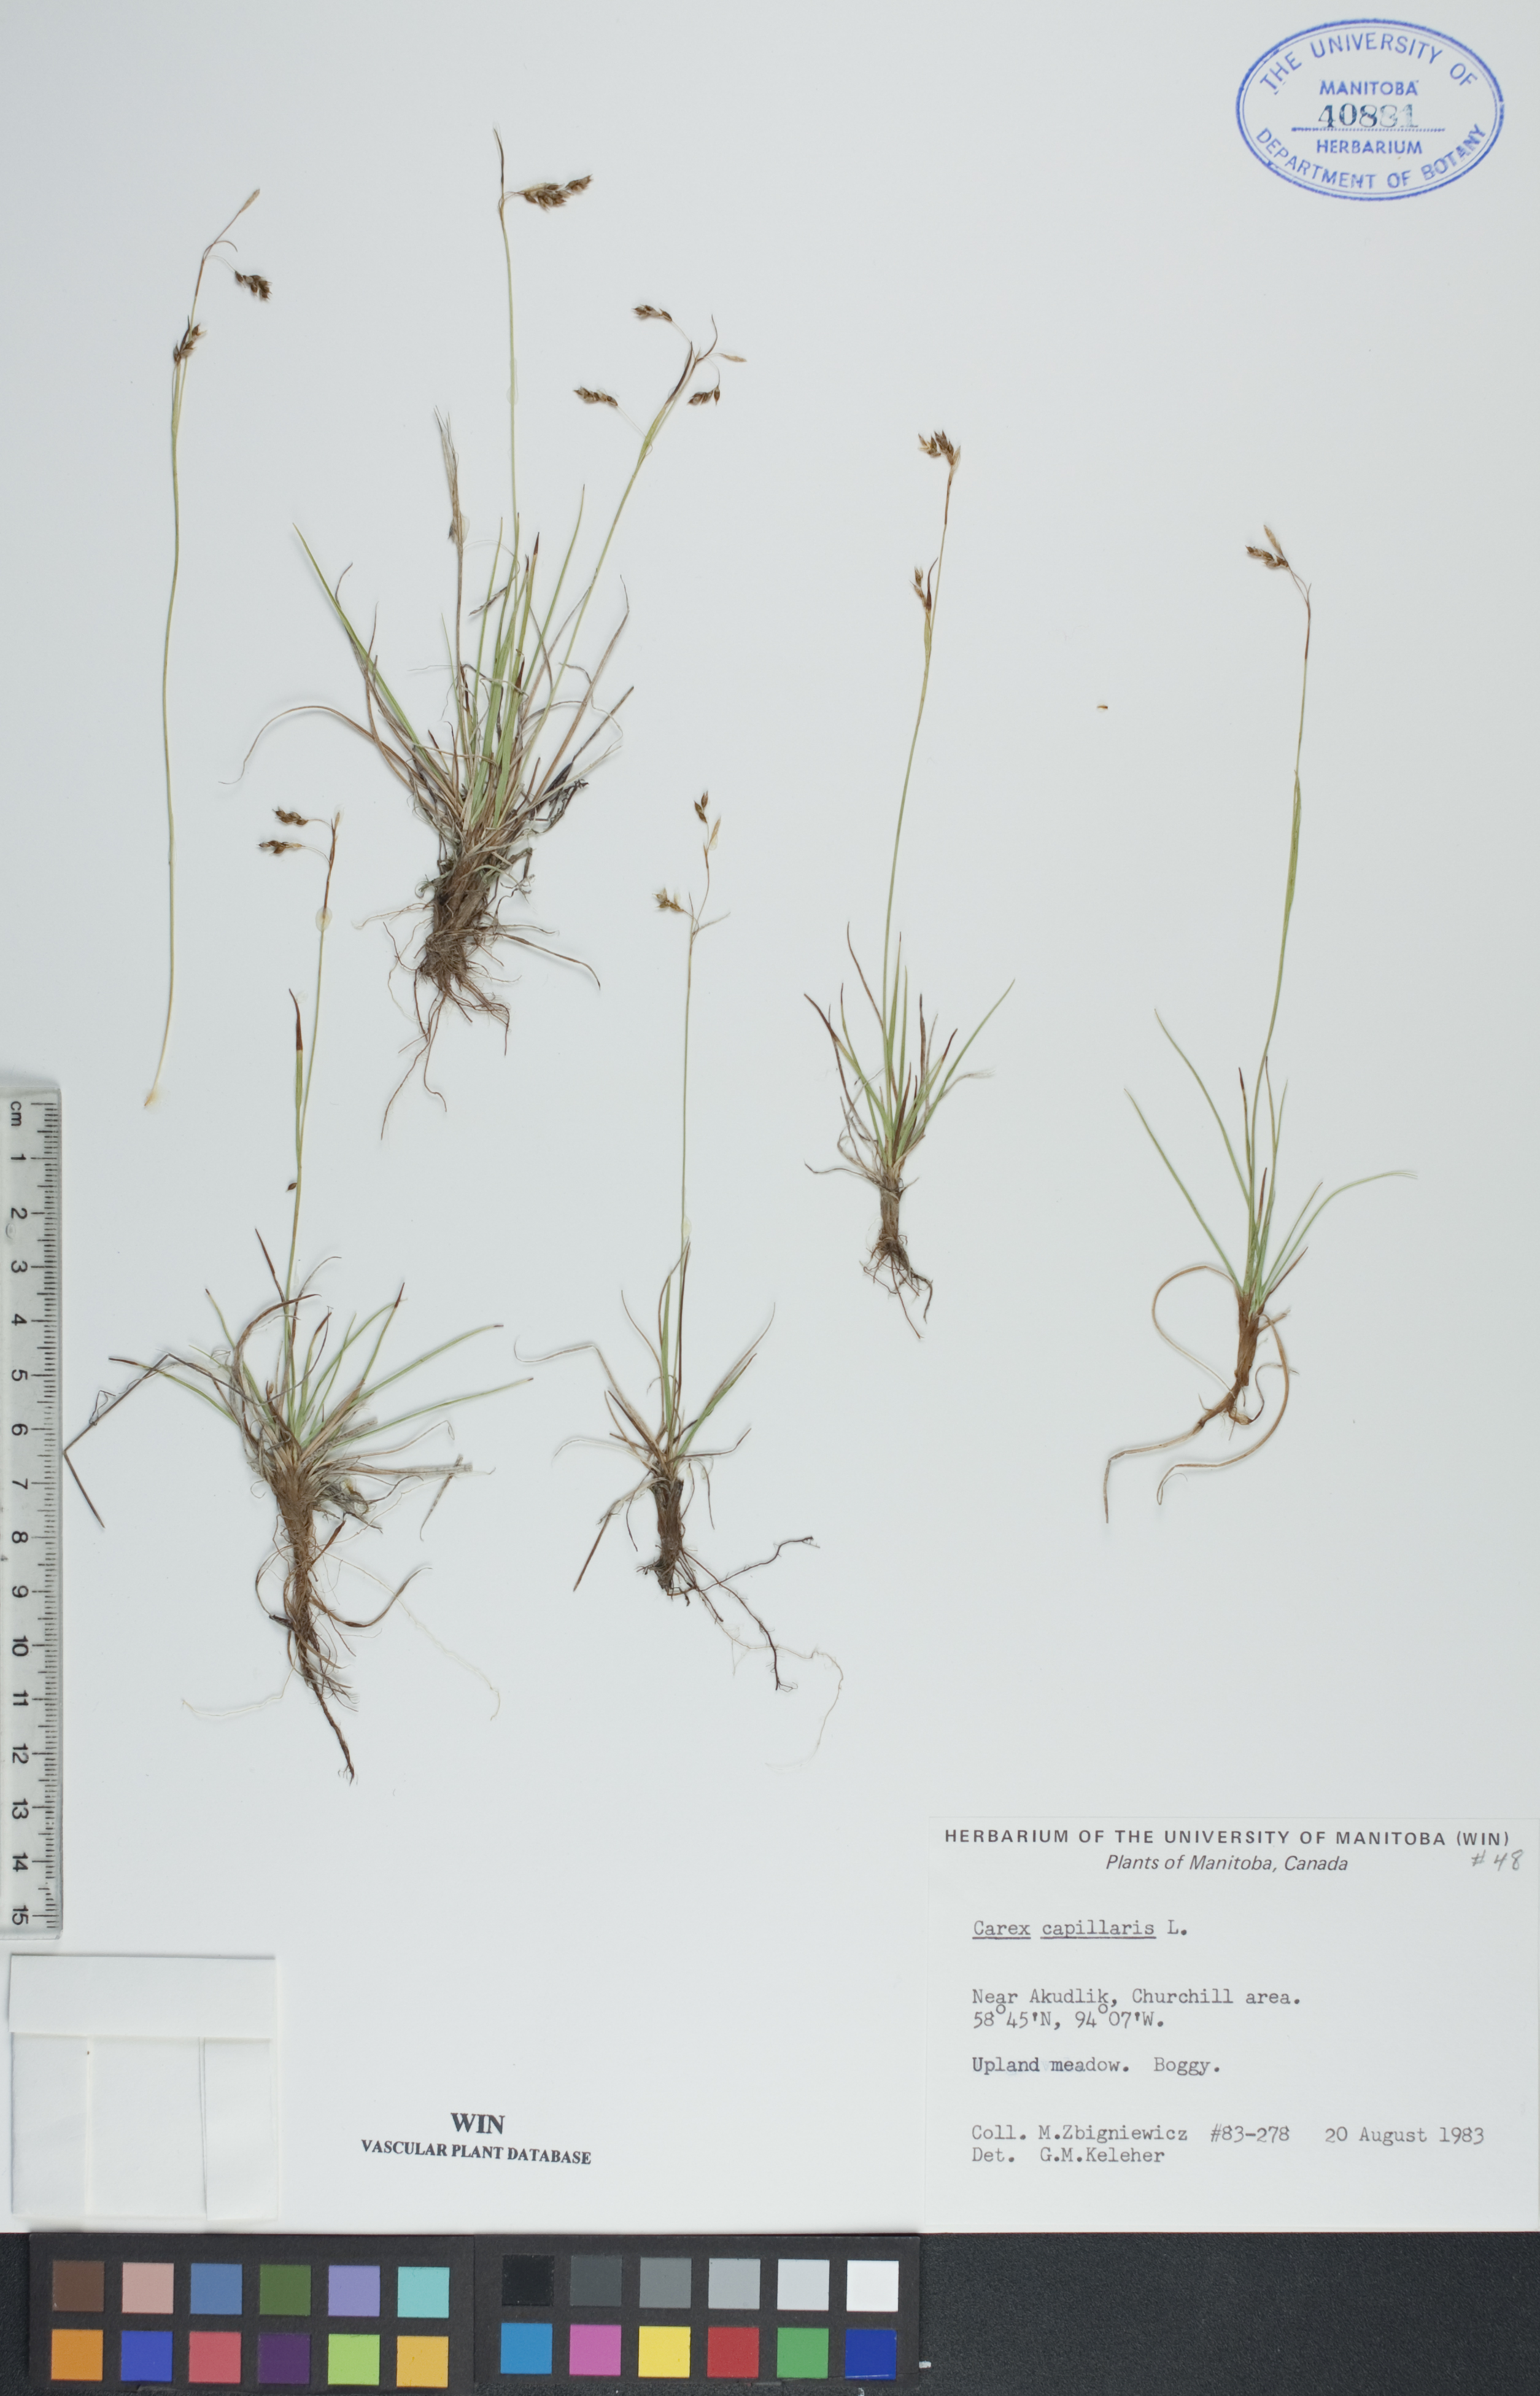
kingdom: Plantae
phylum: Tracheophyta
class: Liliopsida
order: Poales
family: Cyperaceae
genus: Carex
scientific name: Carex capillaris
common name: Hair sedge
